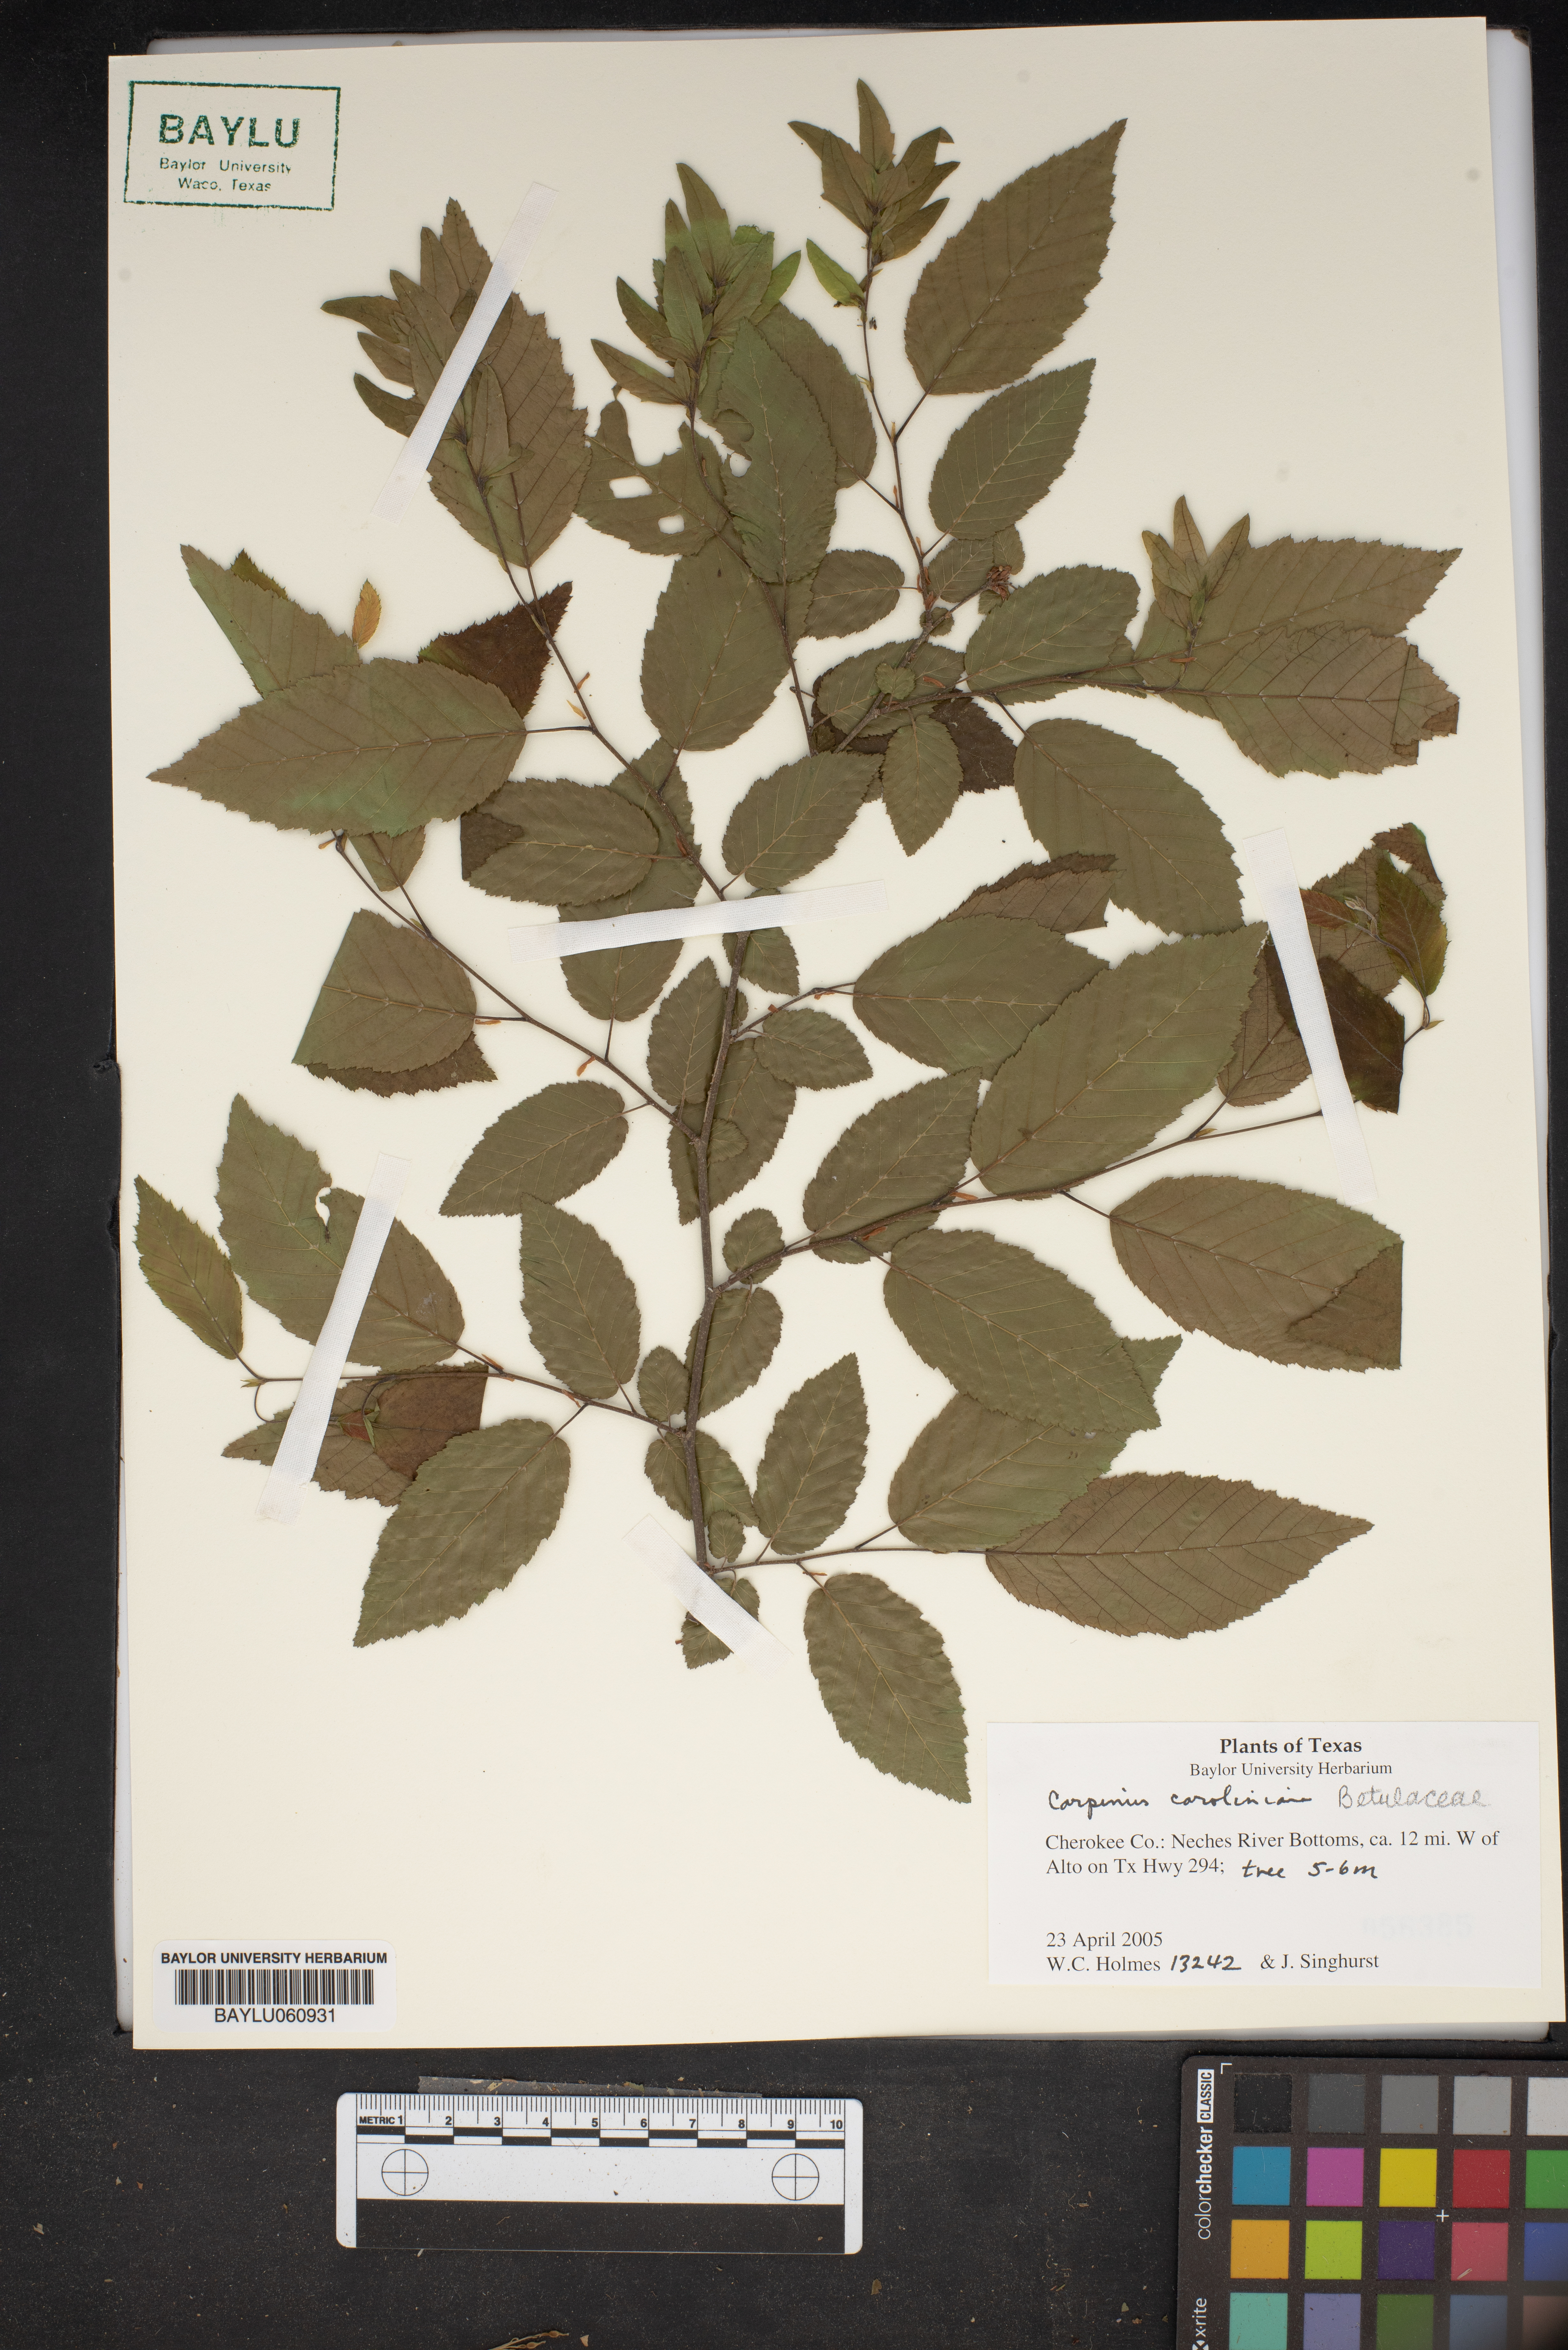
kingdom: Plantae
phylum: Tracheophyta
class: Magnoliopsida
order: Fagales
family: Betulaceae
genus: Carpinus
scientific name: Carpinus caroliniana
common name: American hornbeam
